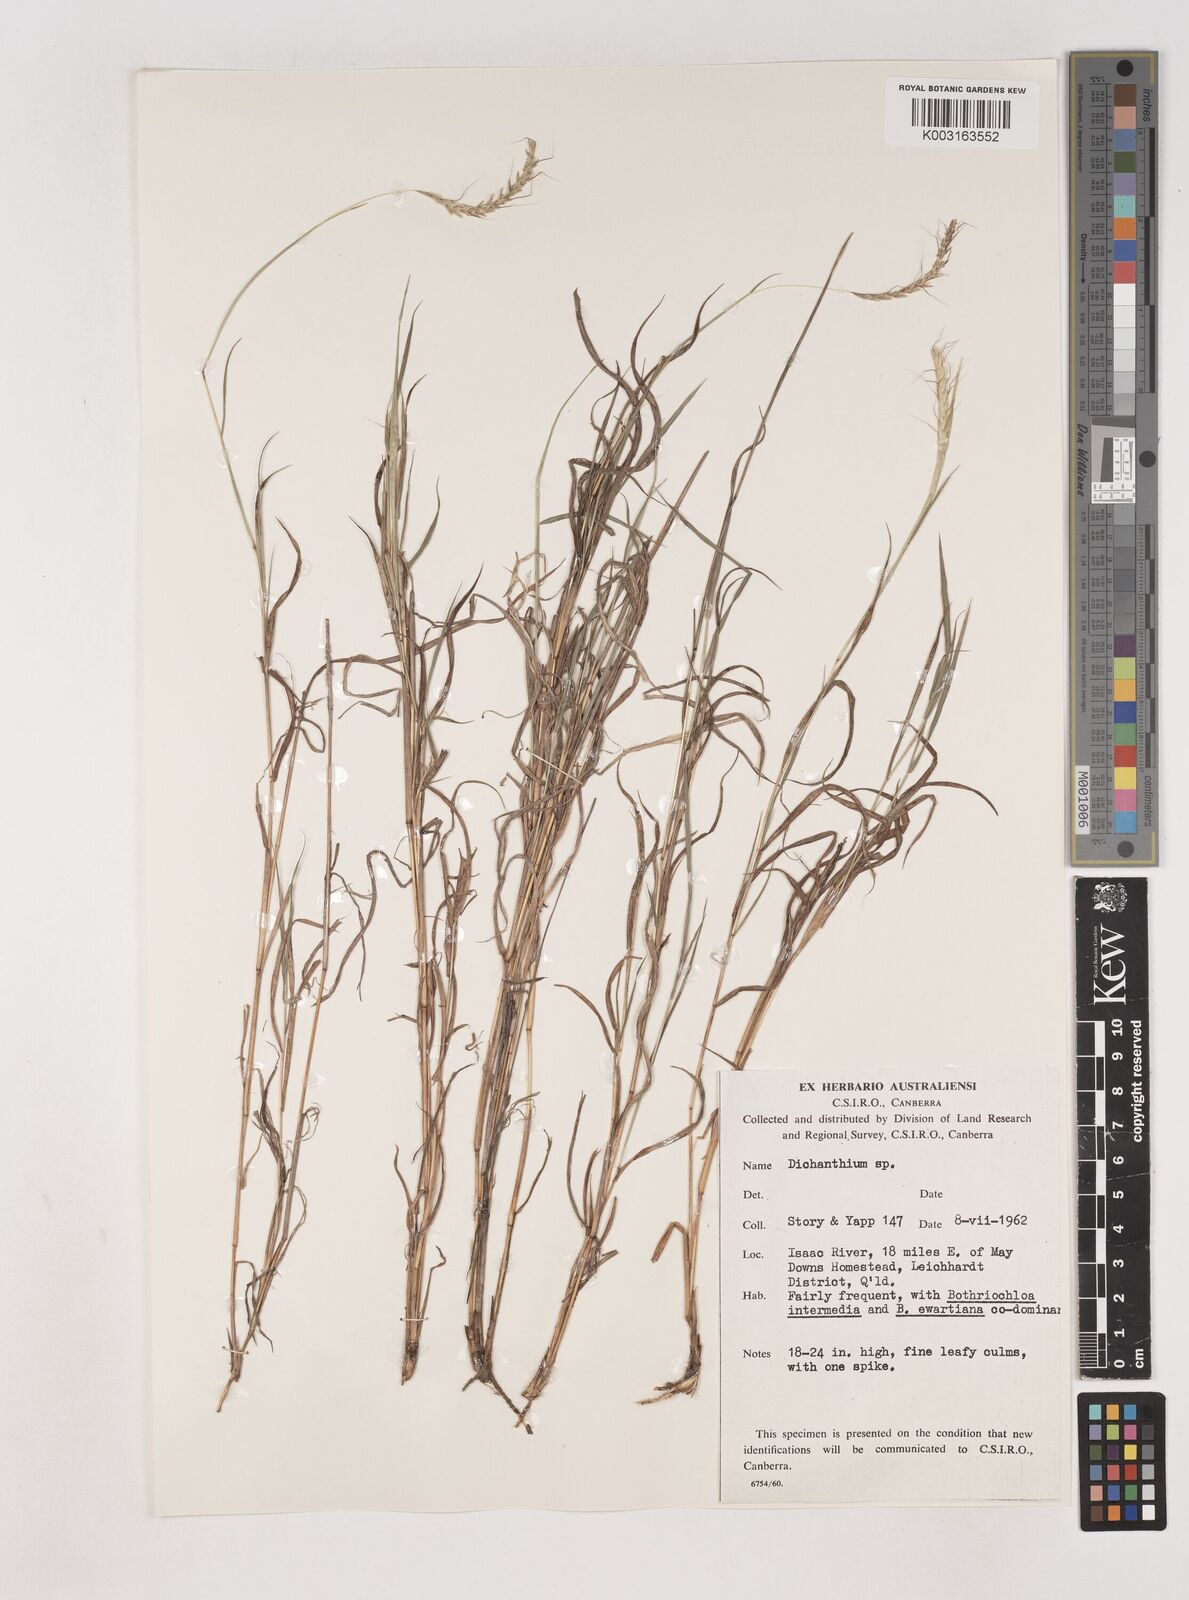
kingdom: Plantae
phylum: Tracheophyta
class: Liliopsida
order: Poales
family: Poaceae
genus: Dichanthium
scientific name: Dichanthium
